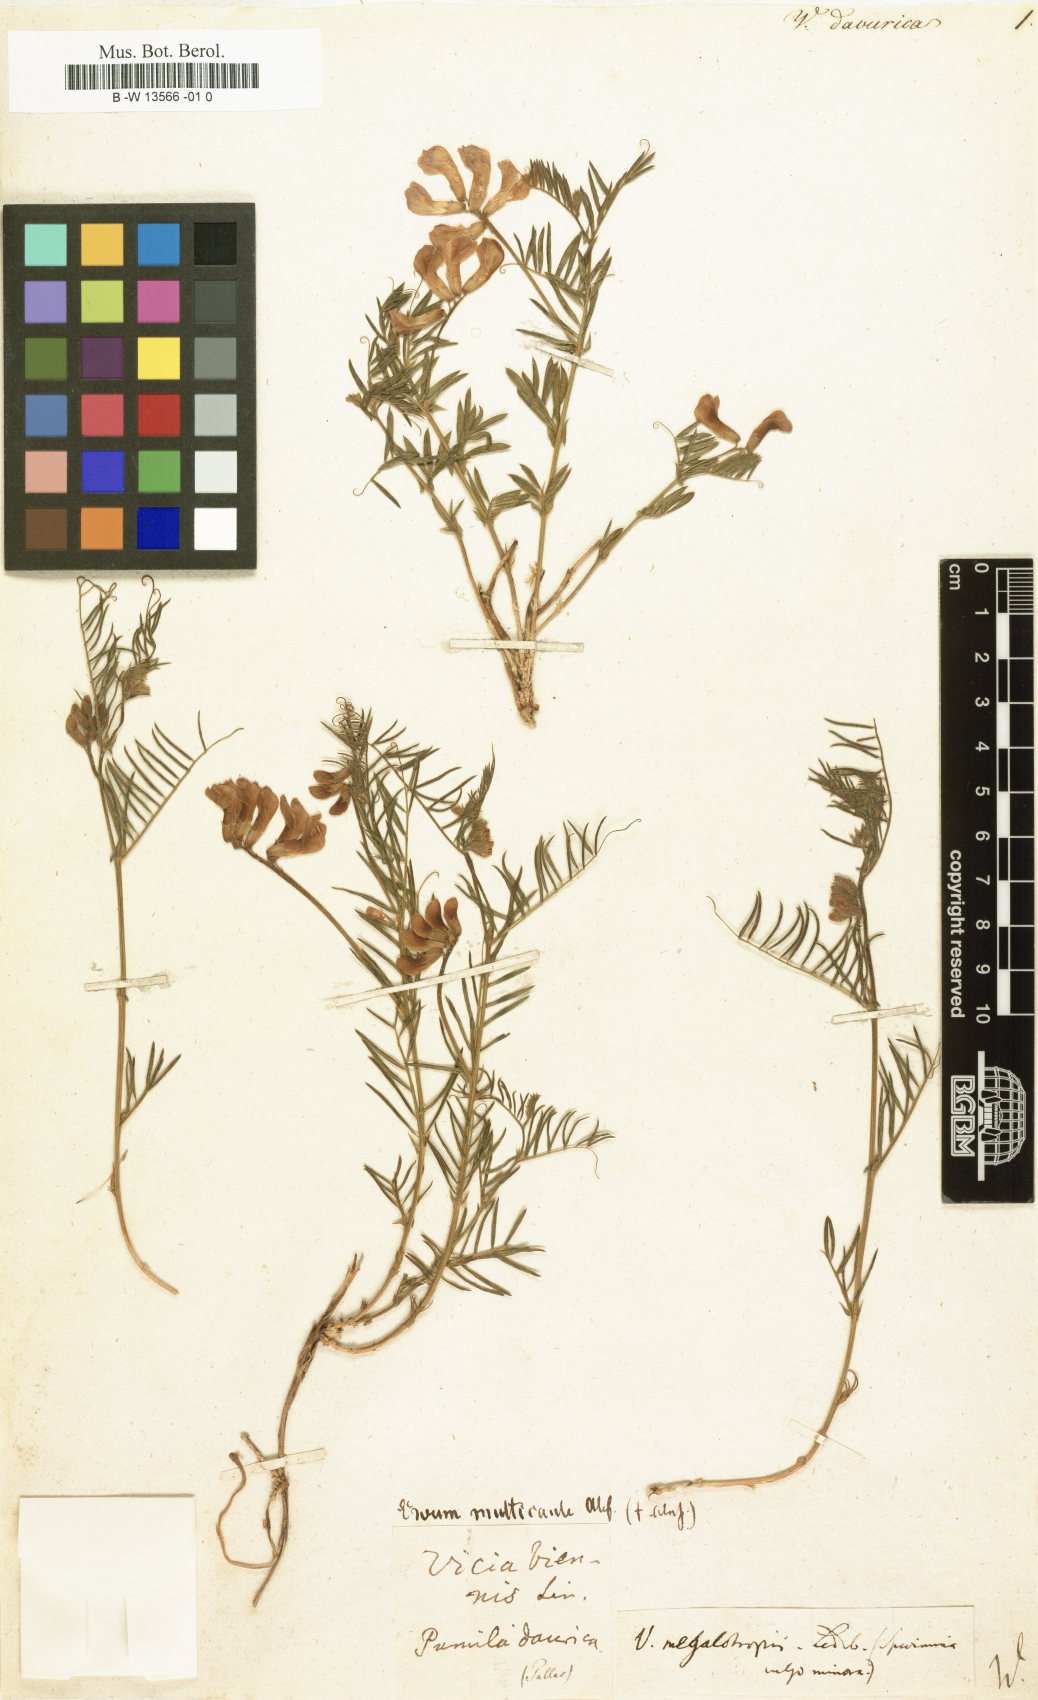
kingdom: Plantae
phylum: Tracheophyta
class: Magnoliopsida
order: Fabales
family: Fabaceae
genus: Vicia
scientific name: Vicia megalotropis
